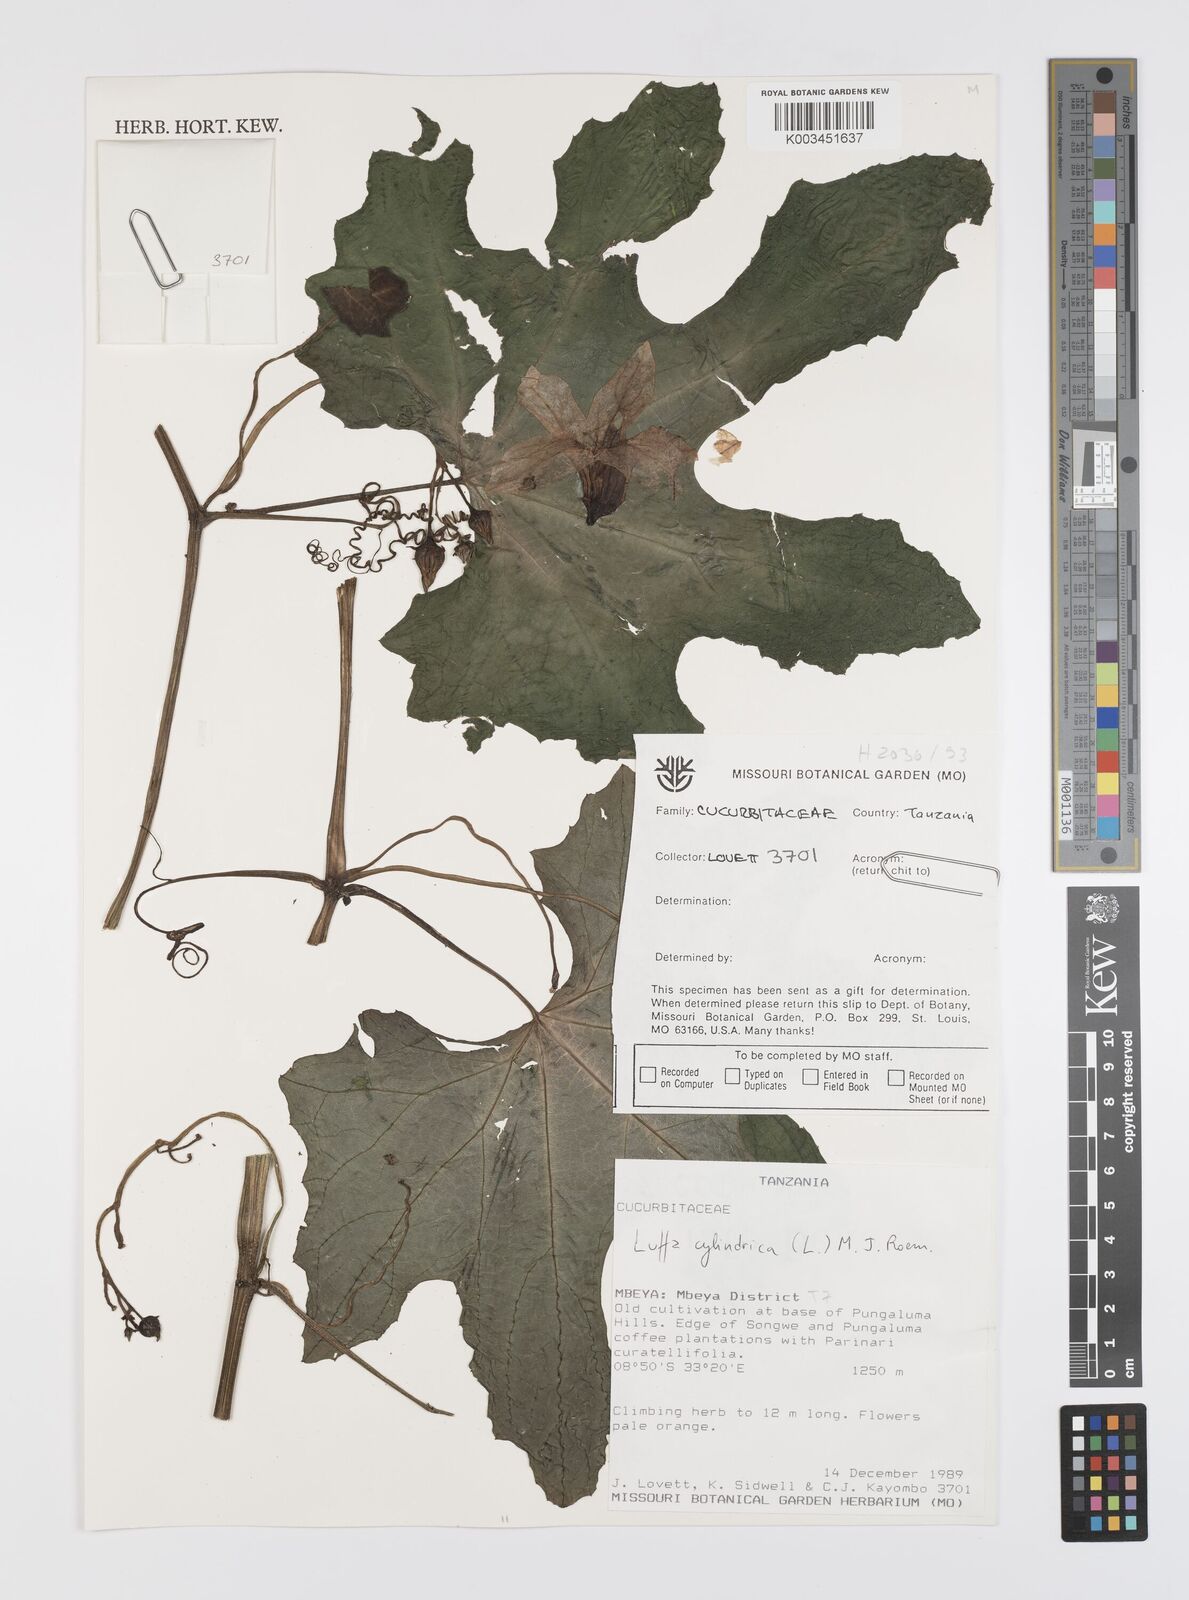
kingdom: Plantae
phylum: Tracheophyta
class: Magnoliopsida
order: Cucurbitales
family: Cucurbitaceae
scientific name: Cucurbitaceae
